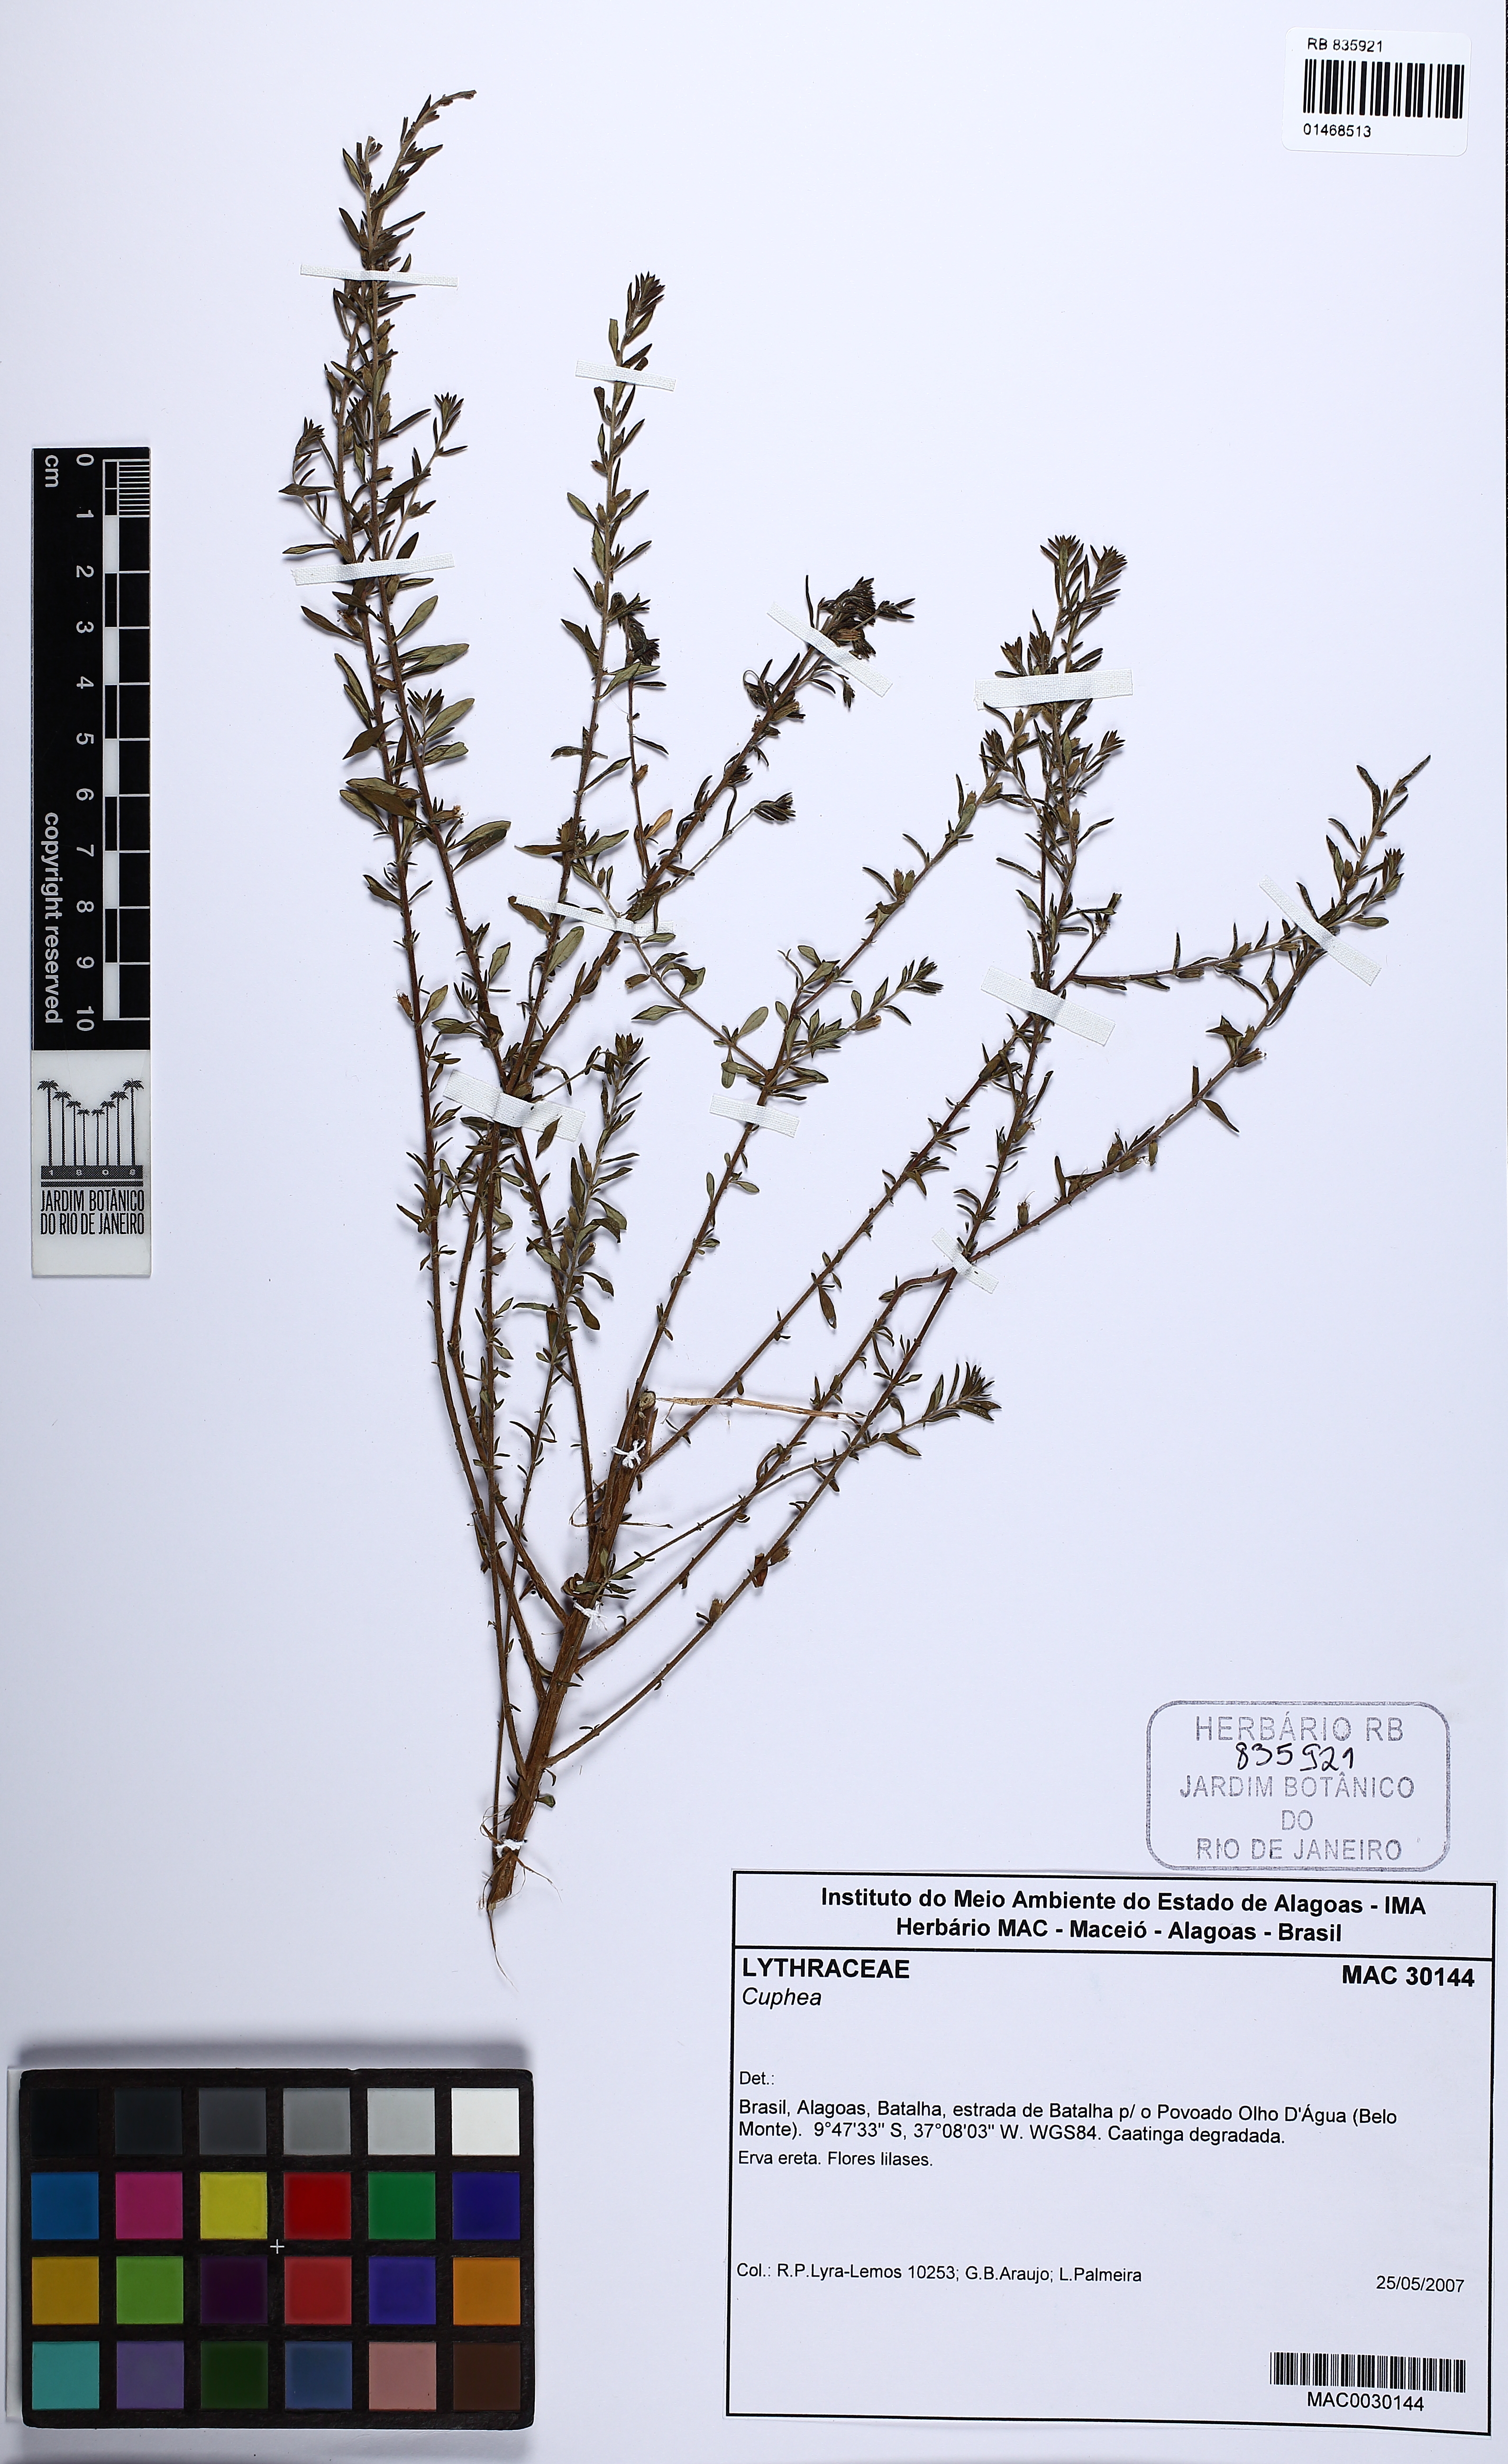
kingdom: Plantae
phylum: Tracheophyta
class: Magnoliopsida
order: Myrtales
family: Lythraceae
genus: Cuphea
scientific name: Cuphea
